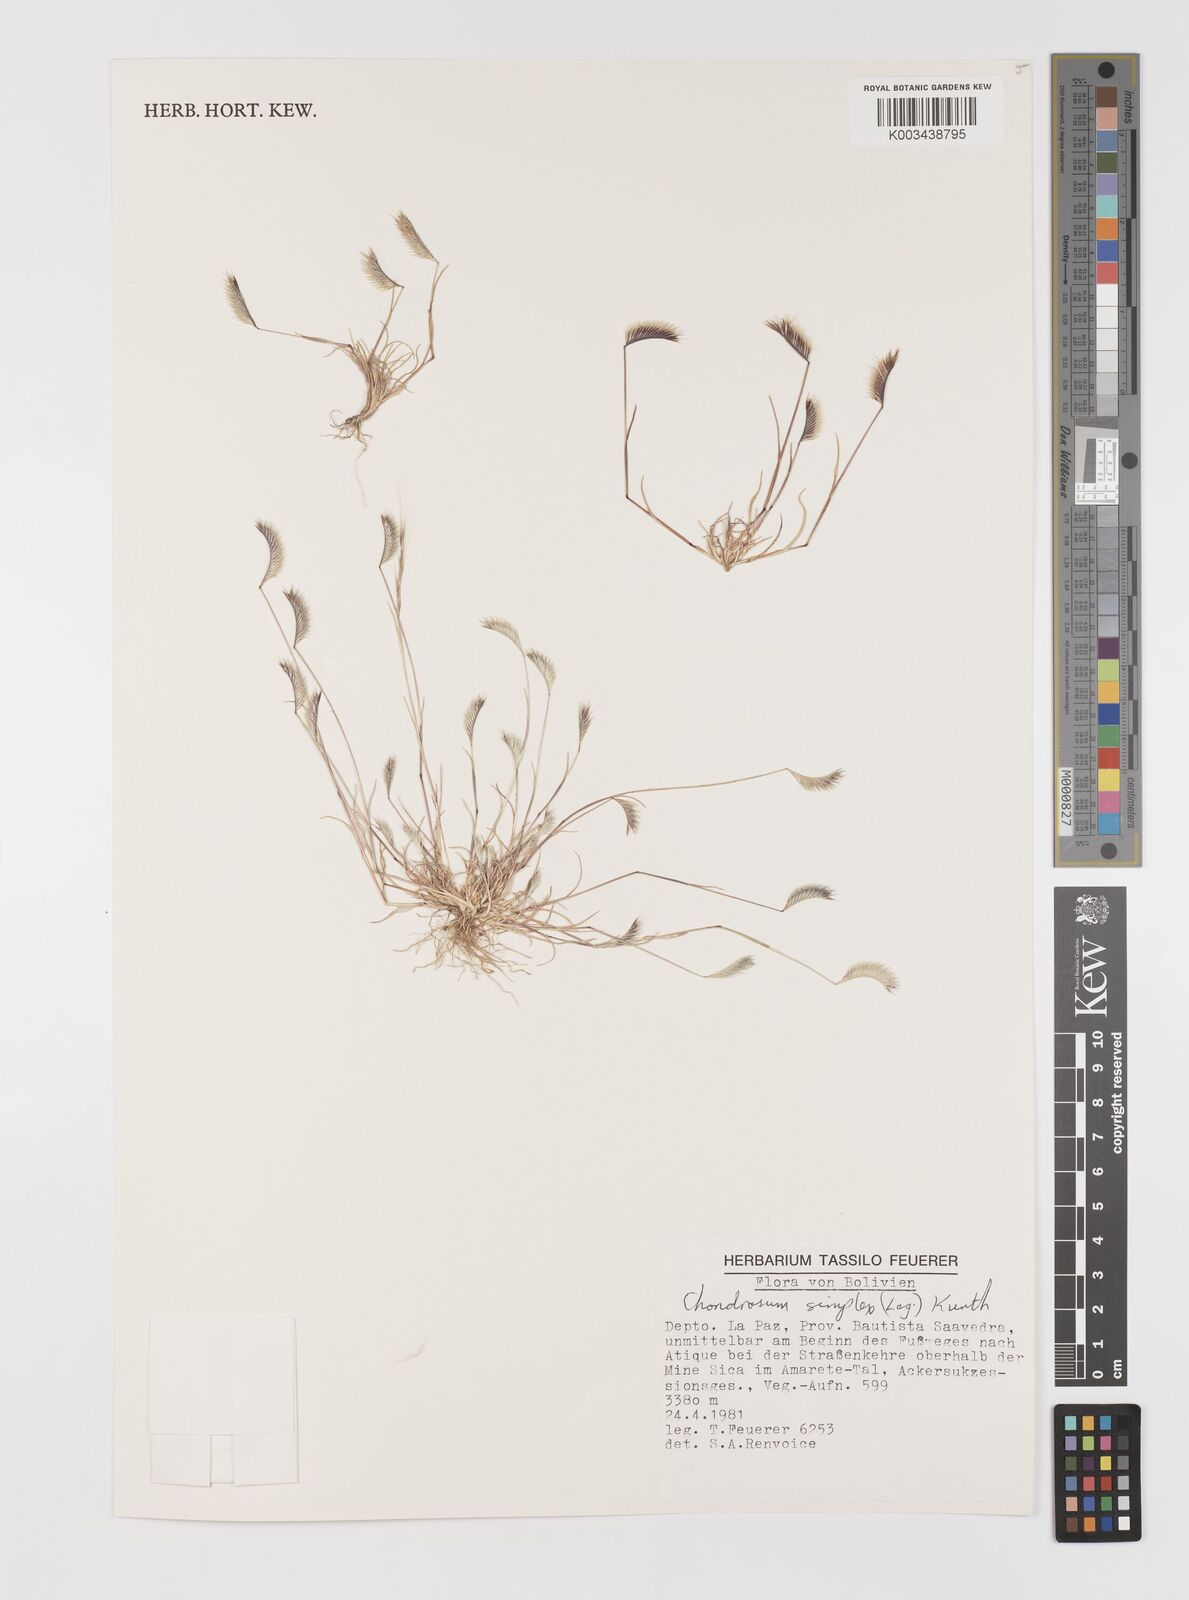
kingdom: Plantae
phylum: Tracheophyta
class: Liliopsida
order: Poales
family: Poaceae
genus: Bouteloua
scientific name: Bouteloua simplex
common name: Mat grama
